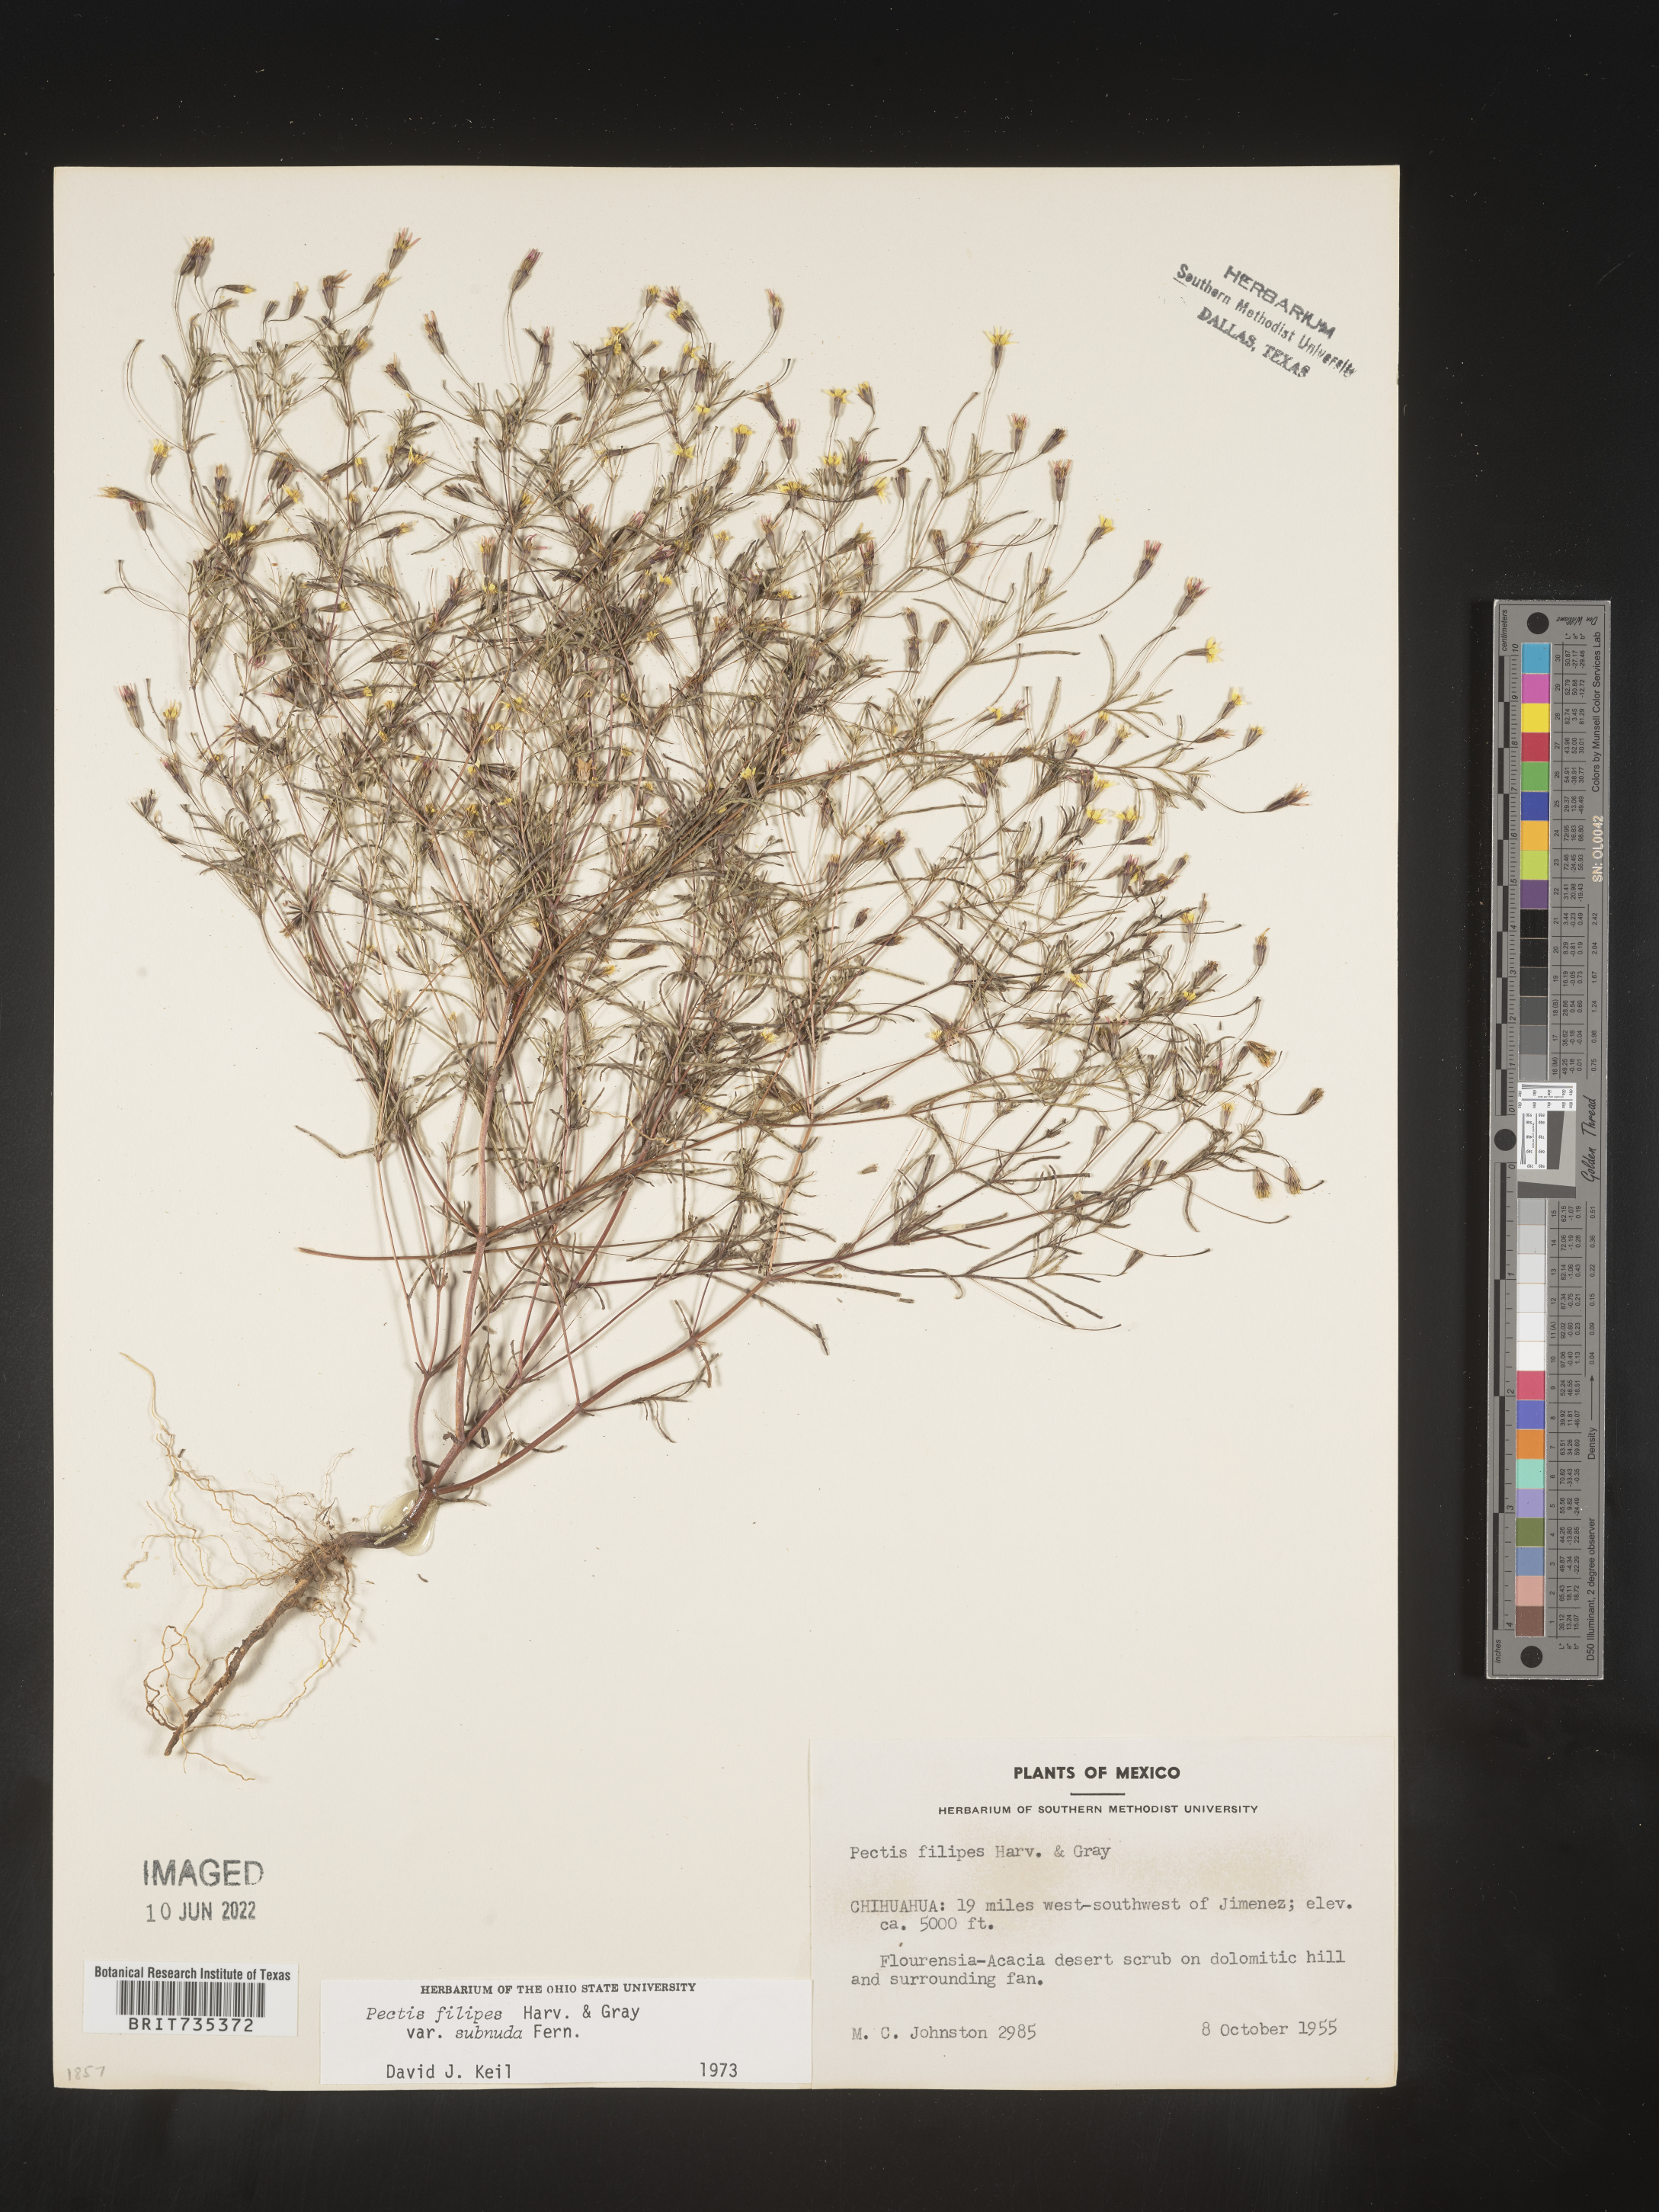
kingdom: Plantae
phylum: Tracheophyta
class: Magnoliopsida
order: Asterales
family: Asteraceae
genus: Pectis
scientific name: Pectis
